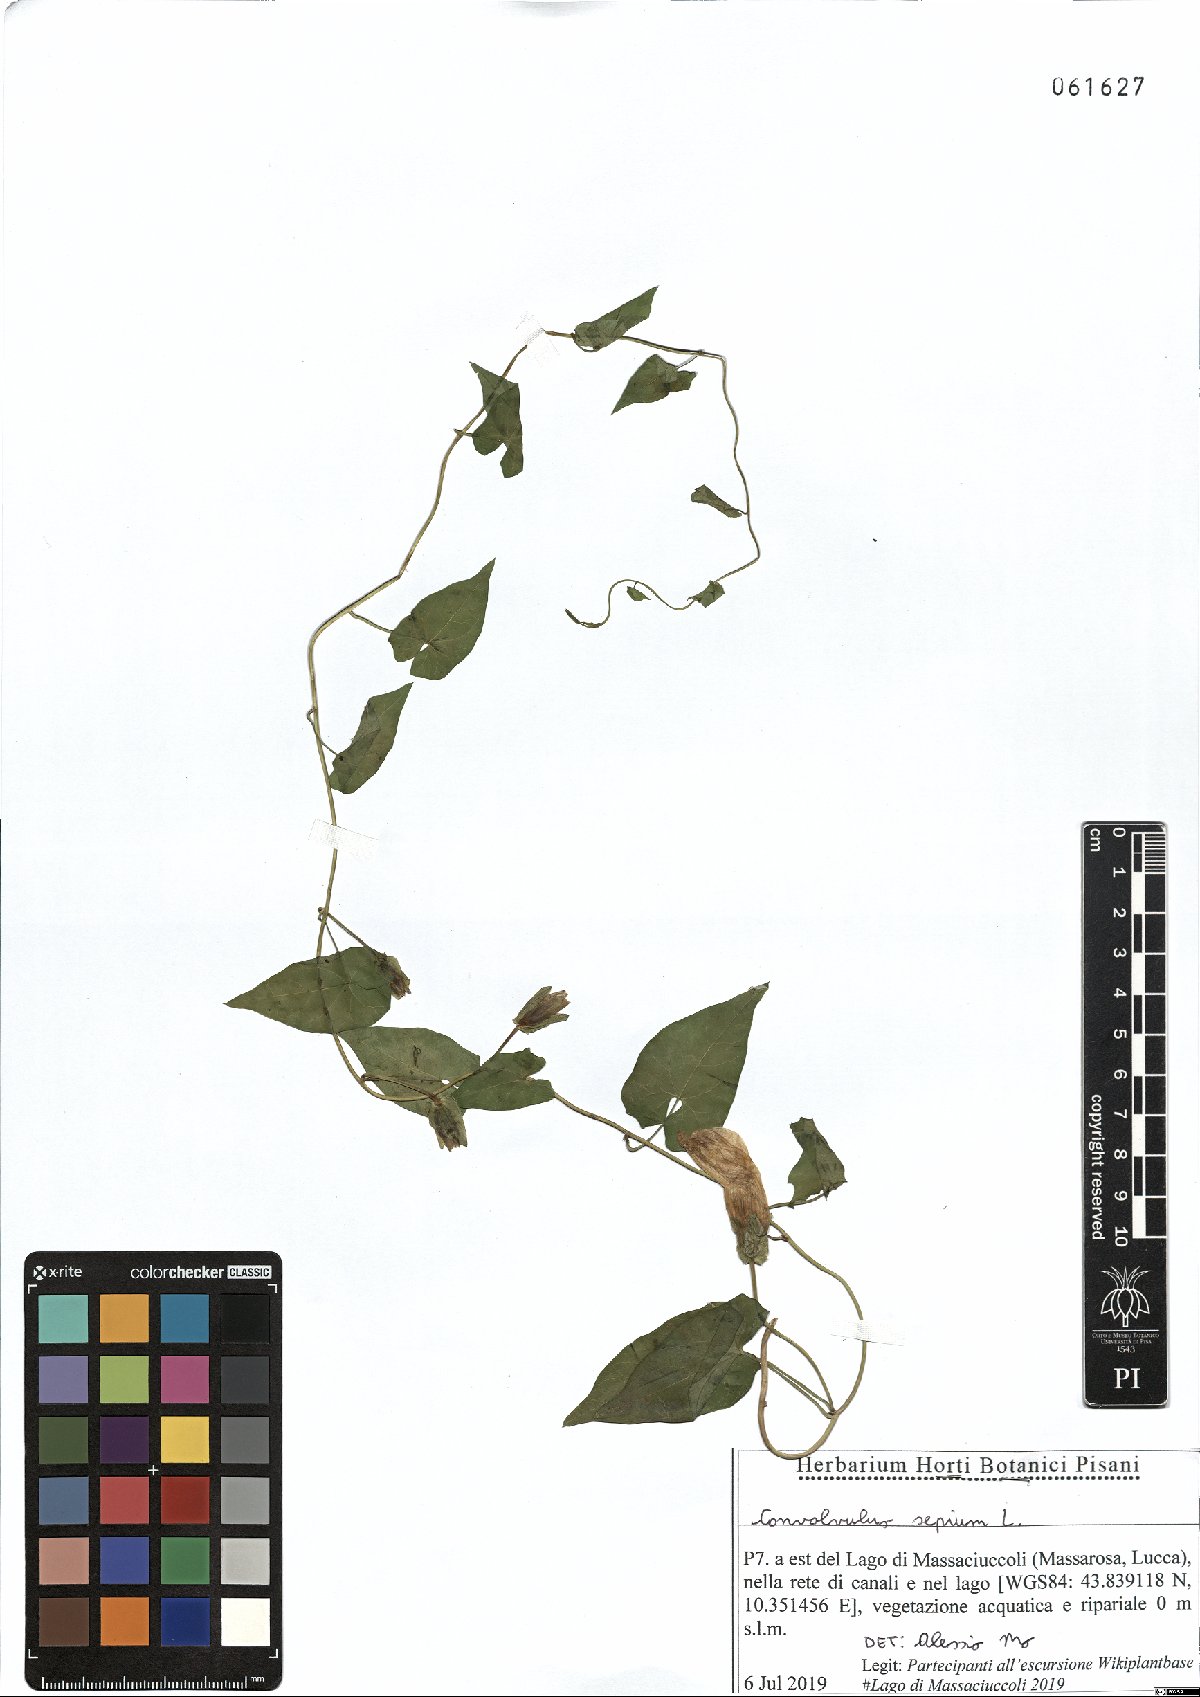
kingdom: Plantae
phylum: Tracheophyta
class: Magnoliopsida
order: Solanales
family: Convolvulaceae
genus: Calystegia
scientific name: Calystegia sepium
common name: Hedge bindweed
